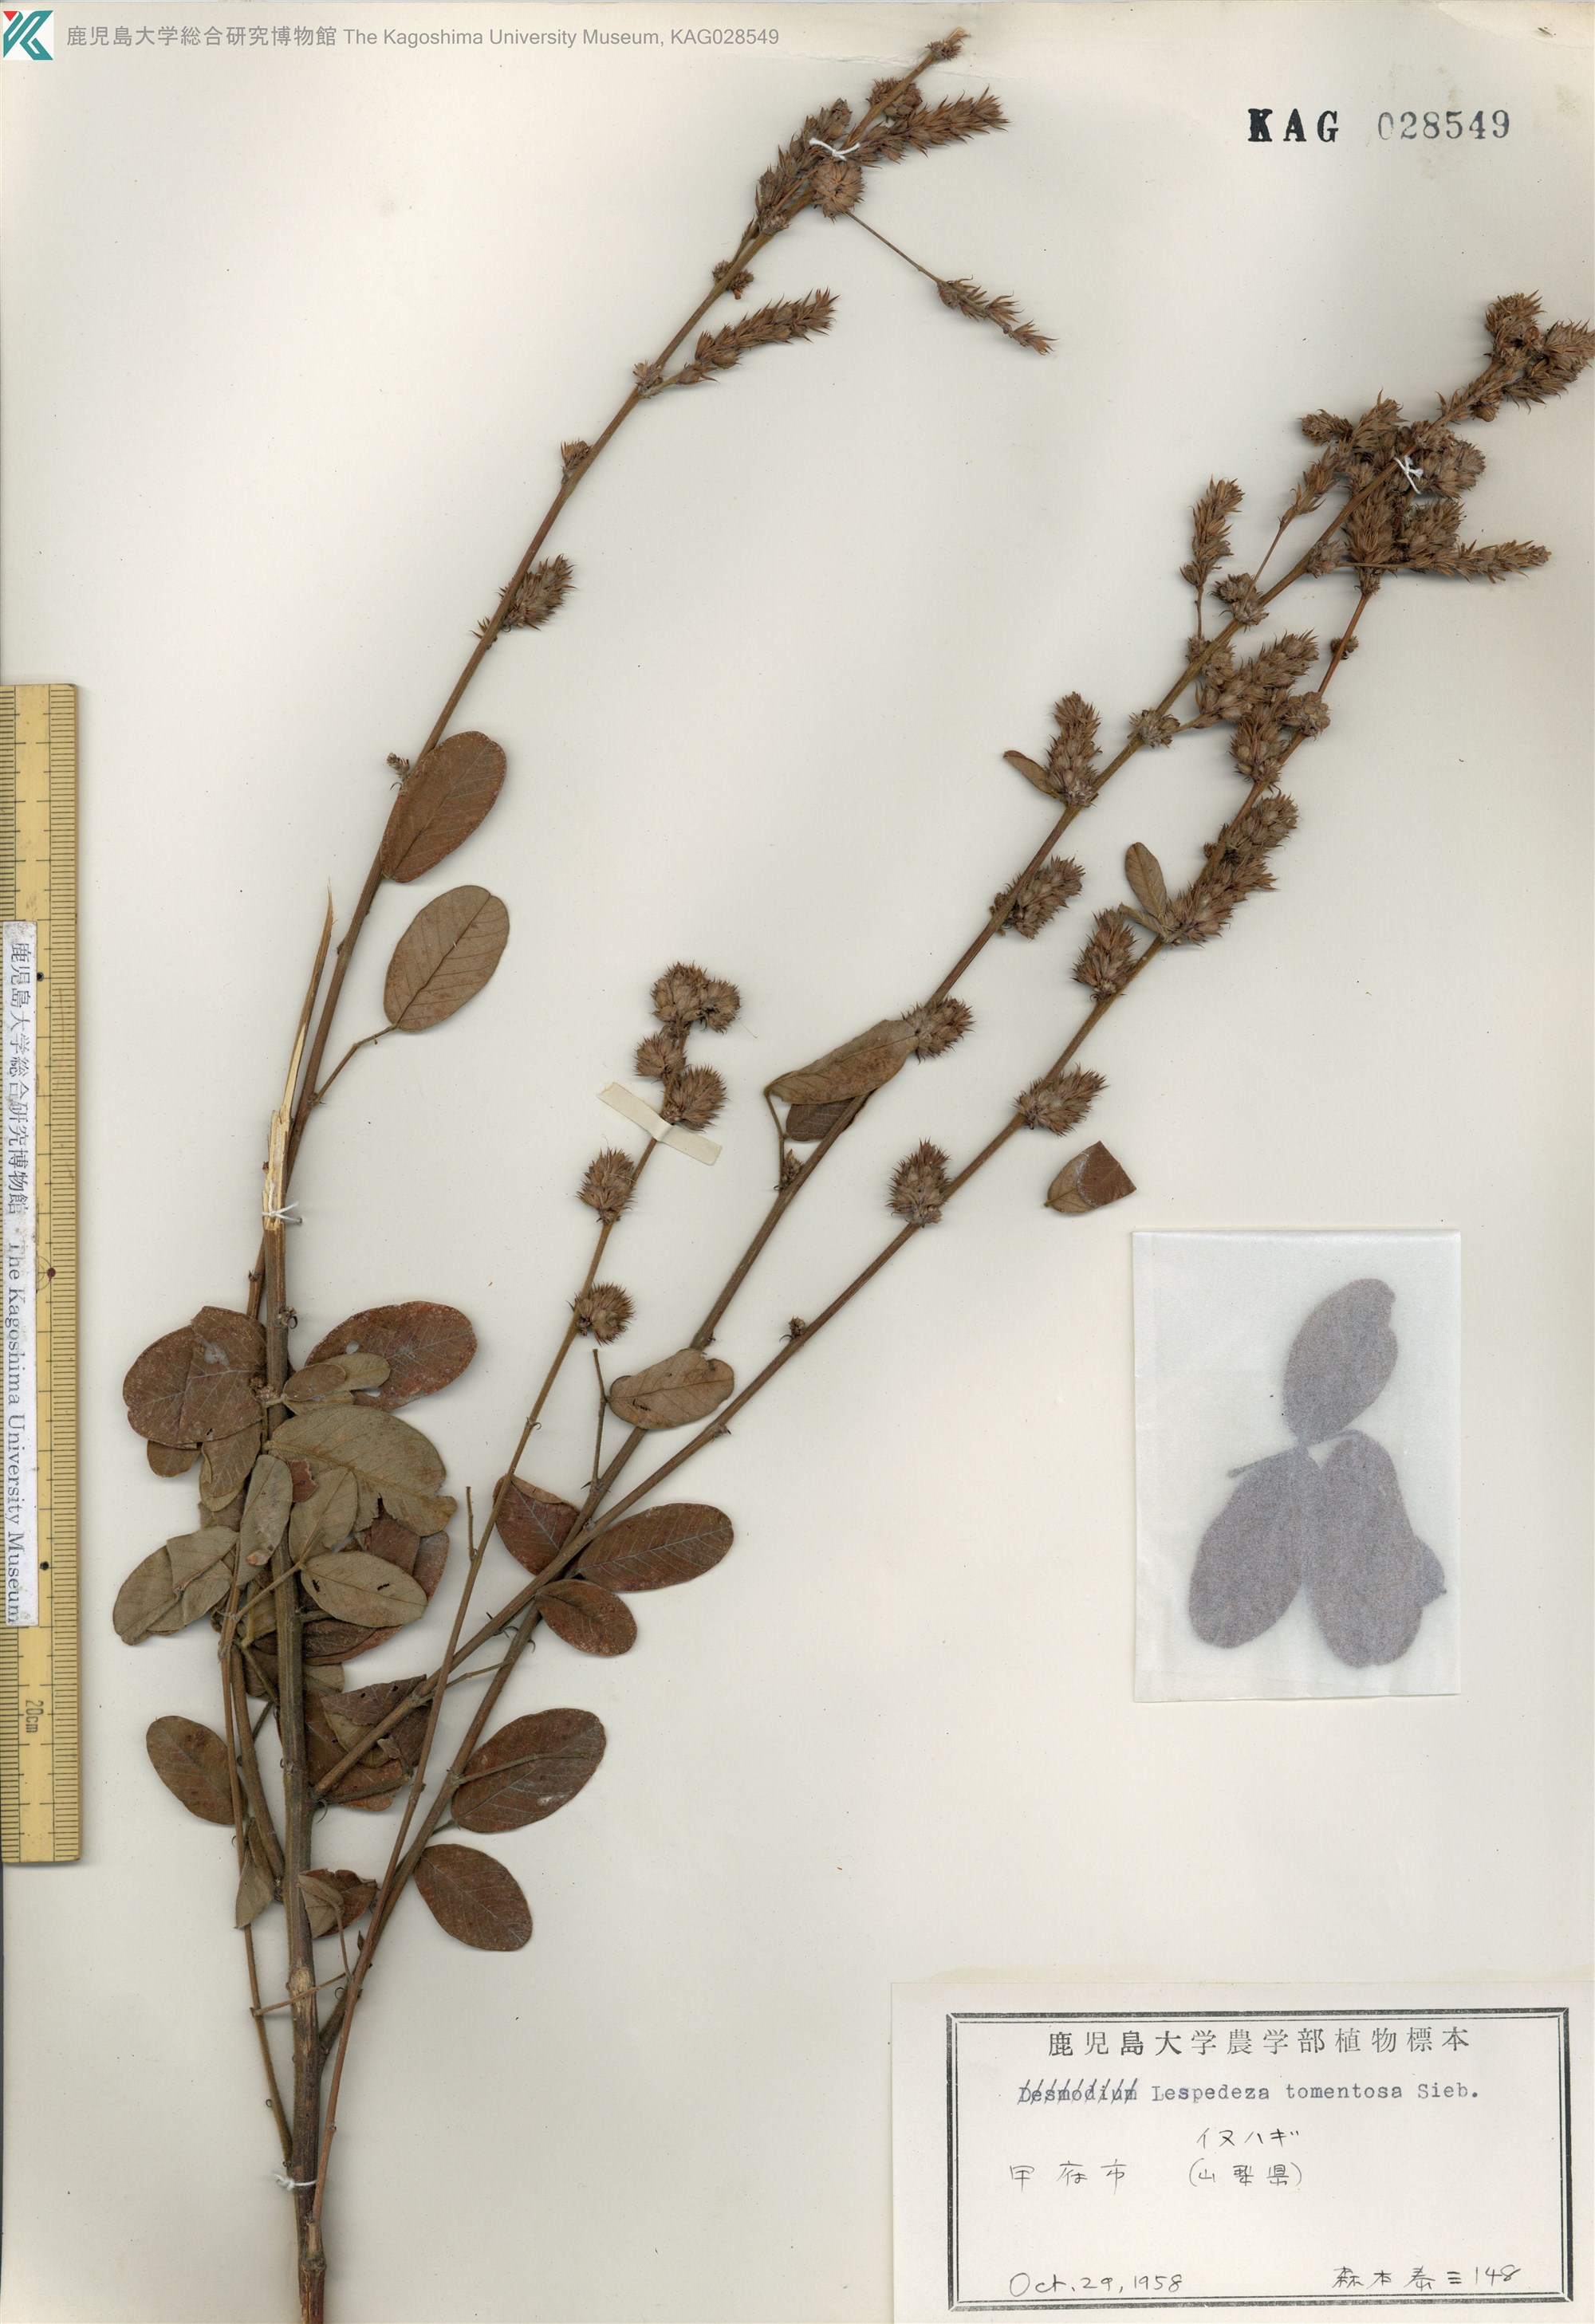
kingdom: Plantae
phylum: Tracheophyta
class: Magnoliopsida
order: Fabales
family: Fabaceae
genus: Lespedeza
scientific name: Lespedeza tomentosa
